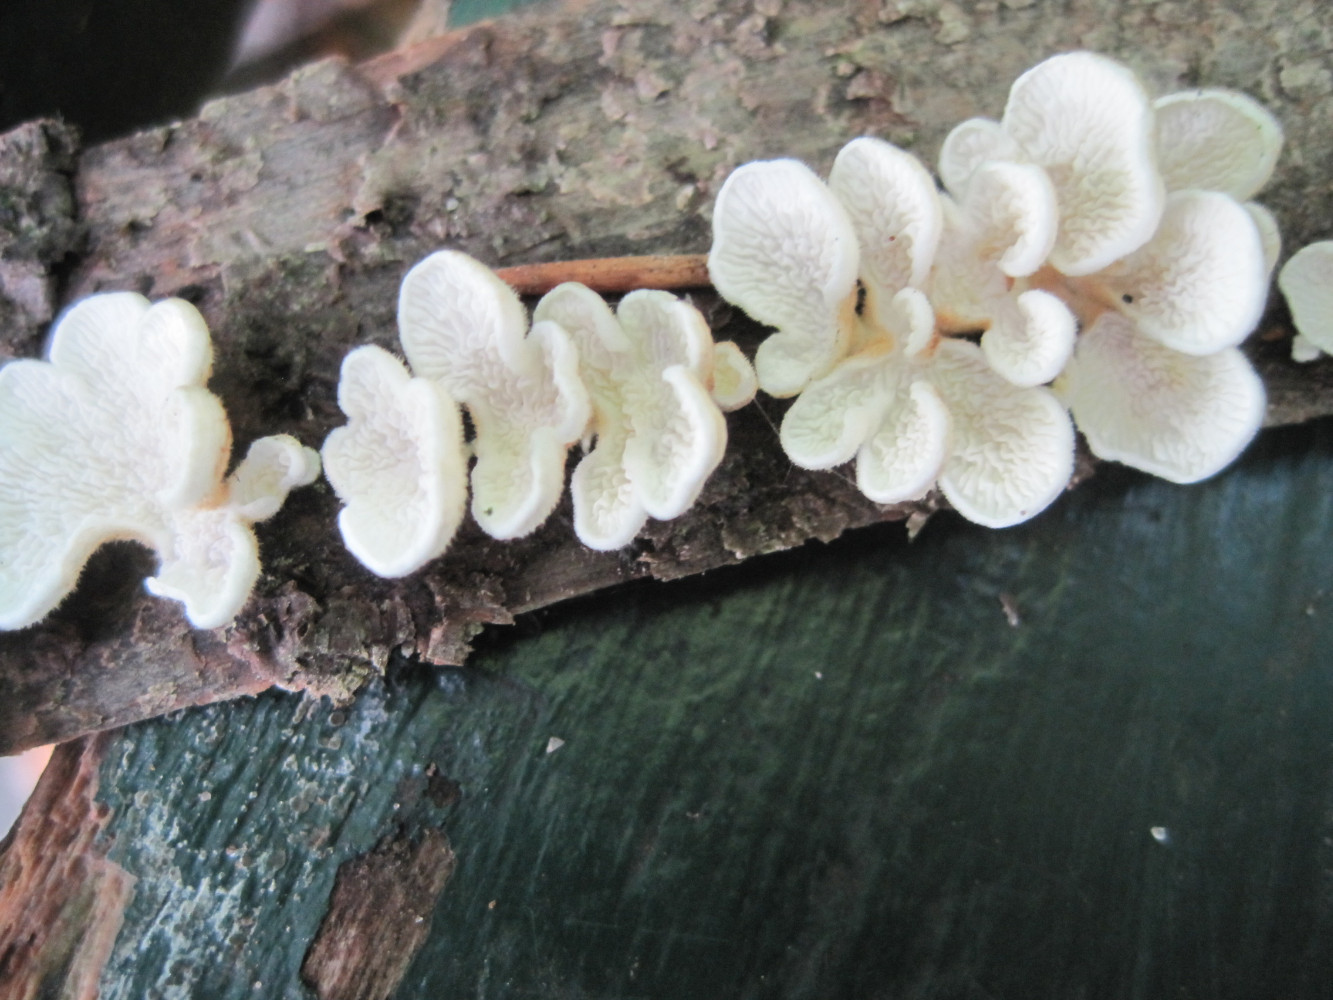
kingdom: Fungi
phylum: Basidiomycota
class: Agaricomycetes
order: Amylocorticiales
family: Amylocorticiaceae
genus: Plicaturopsis
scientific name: Plicaturopsis crispa
